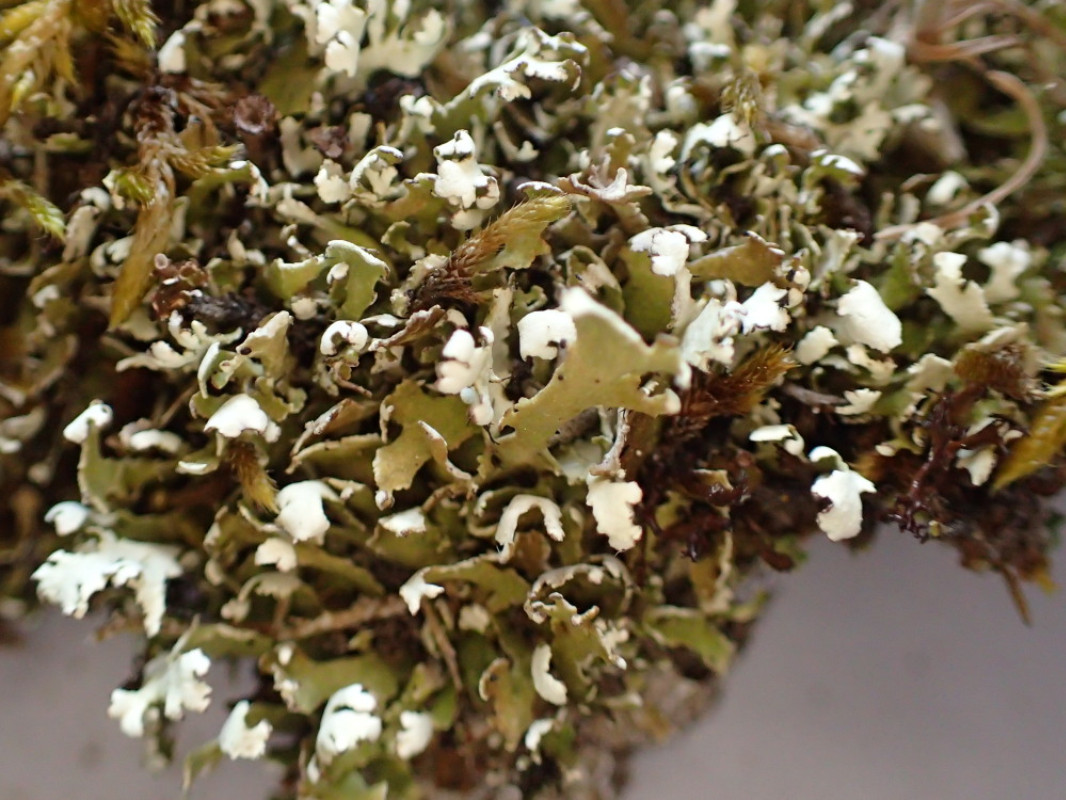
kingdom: Fungi
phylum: Ascomycota
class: Lecanoromycetes
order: Lecanorales
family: Cladoniaceae
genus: Cladonia
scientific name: Cladonia foliacea
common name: fliget bægerlav
